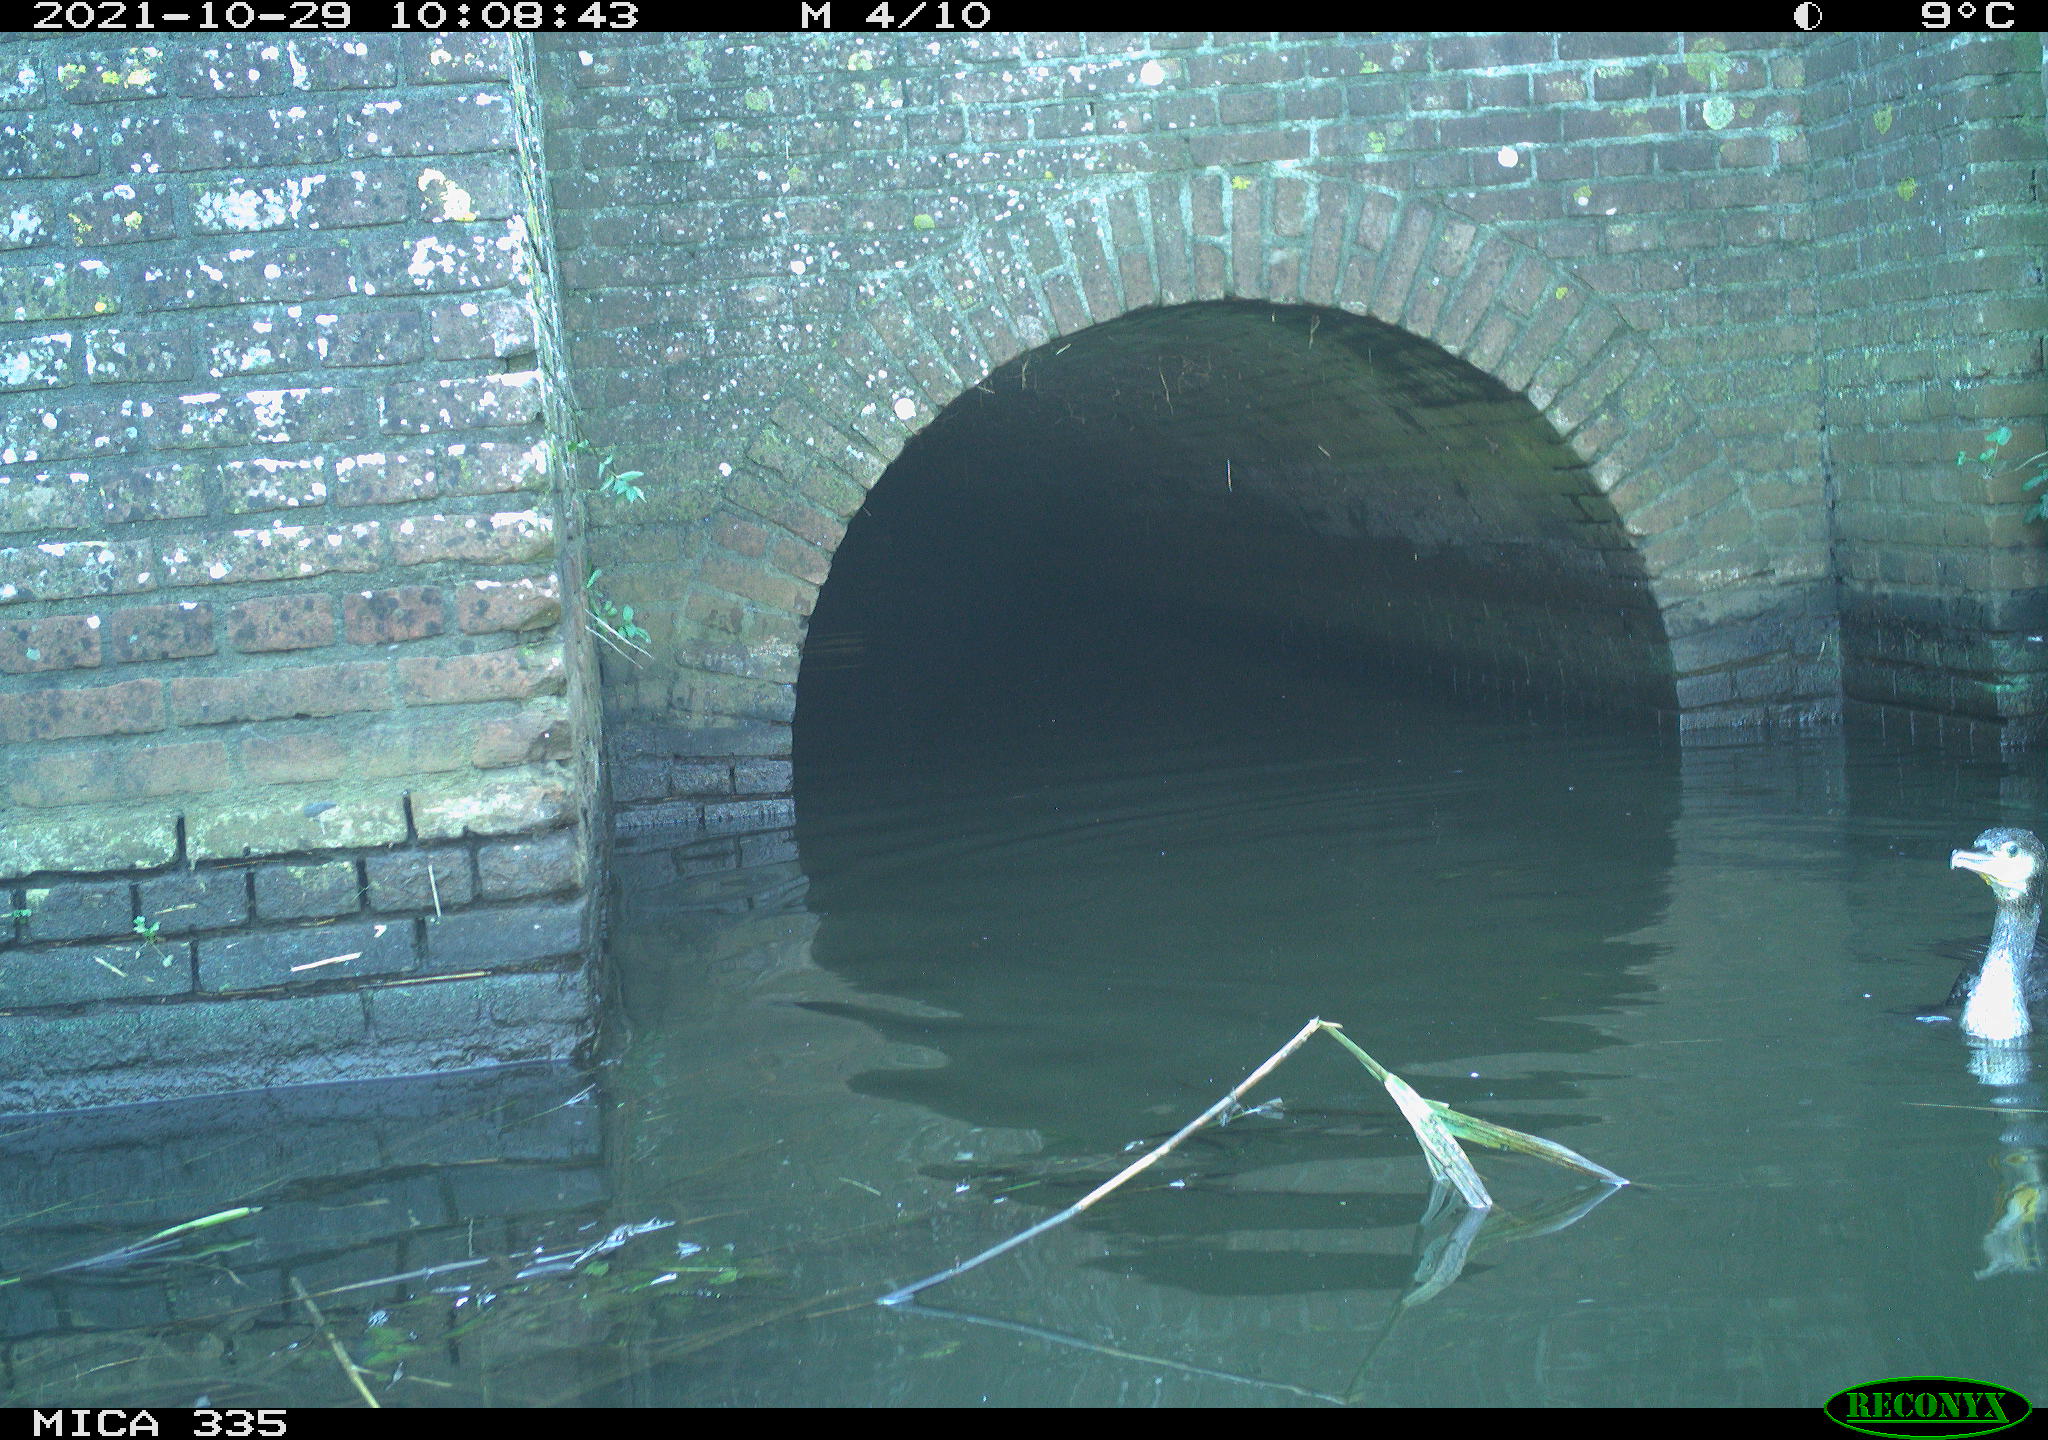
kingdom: Animalia
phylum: Chordata
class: Aves
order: Suliformes
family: Phalacrocoracidae
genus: Phalacrocorax
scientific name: Phalacrocorax carbo
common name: Great cormorant
